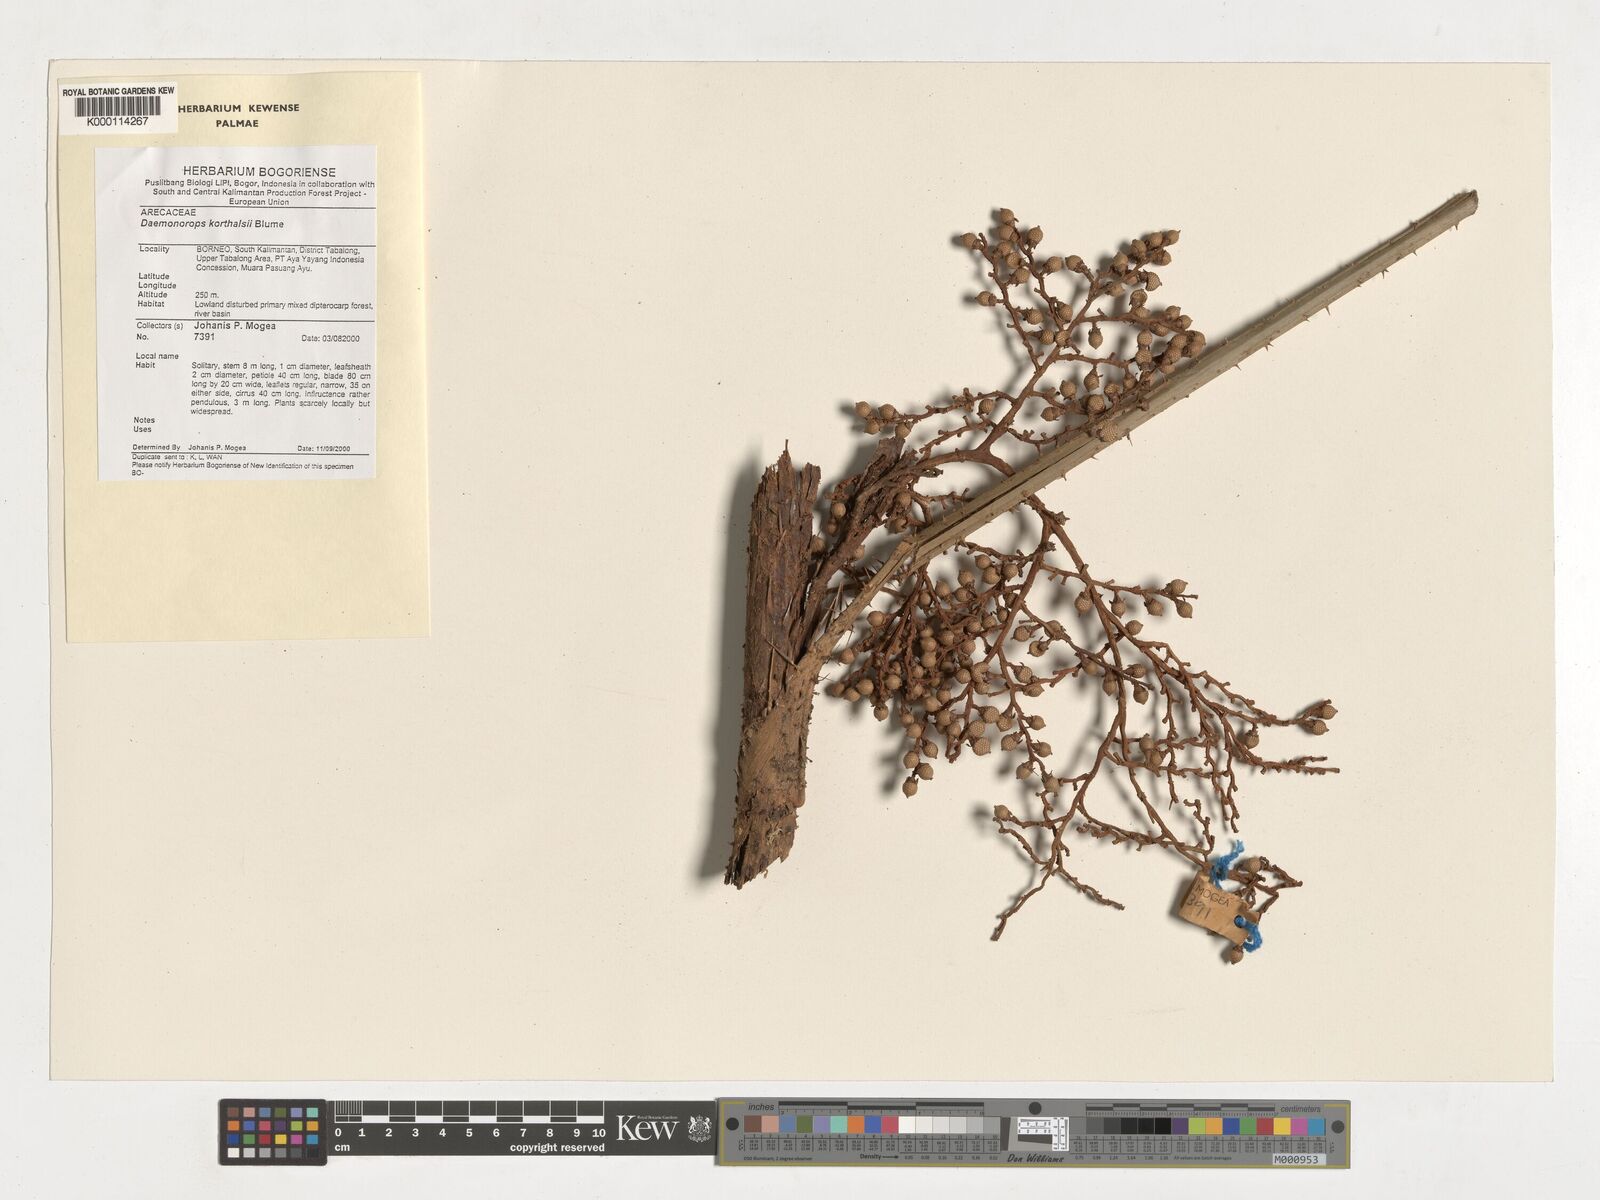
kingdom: Plantae
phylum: Tracheophyta
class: Liliopsida
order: Arecales
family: Arecaceae
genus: Calamus
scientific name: Calamus hirsutus
